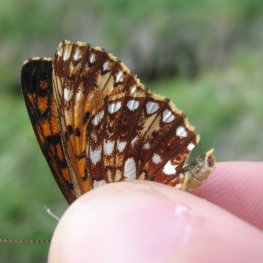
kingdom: Animalia
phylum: Arthropoda
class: Insecta
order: Lepidoptera
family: Nymphalidae
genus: Boloria
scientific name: Boloria selene
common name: Silver-bordered Fritillary
